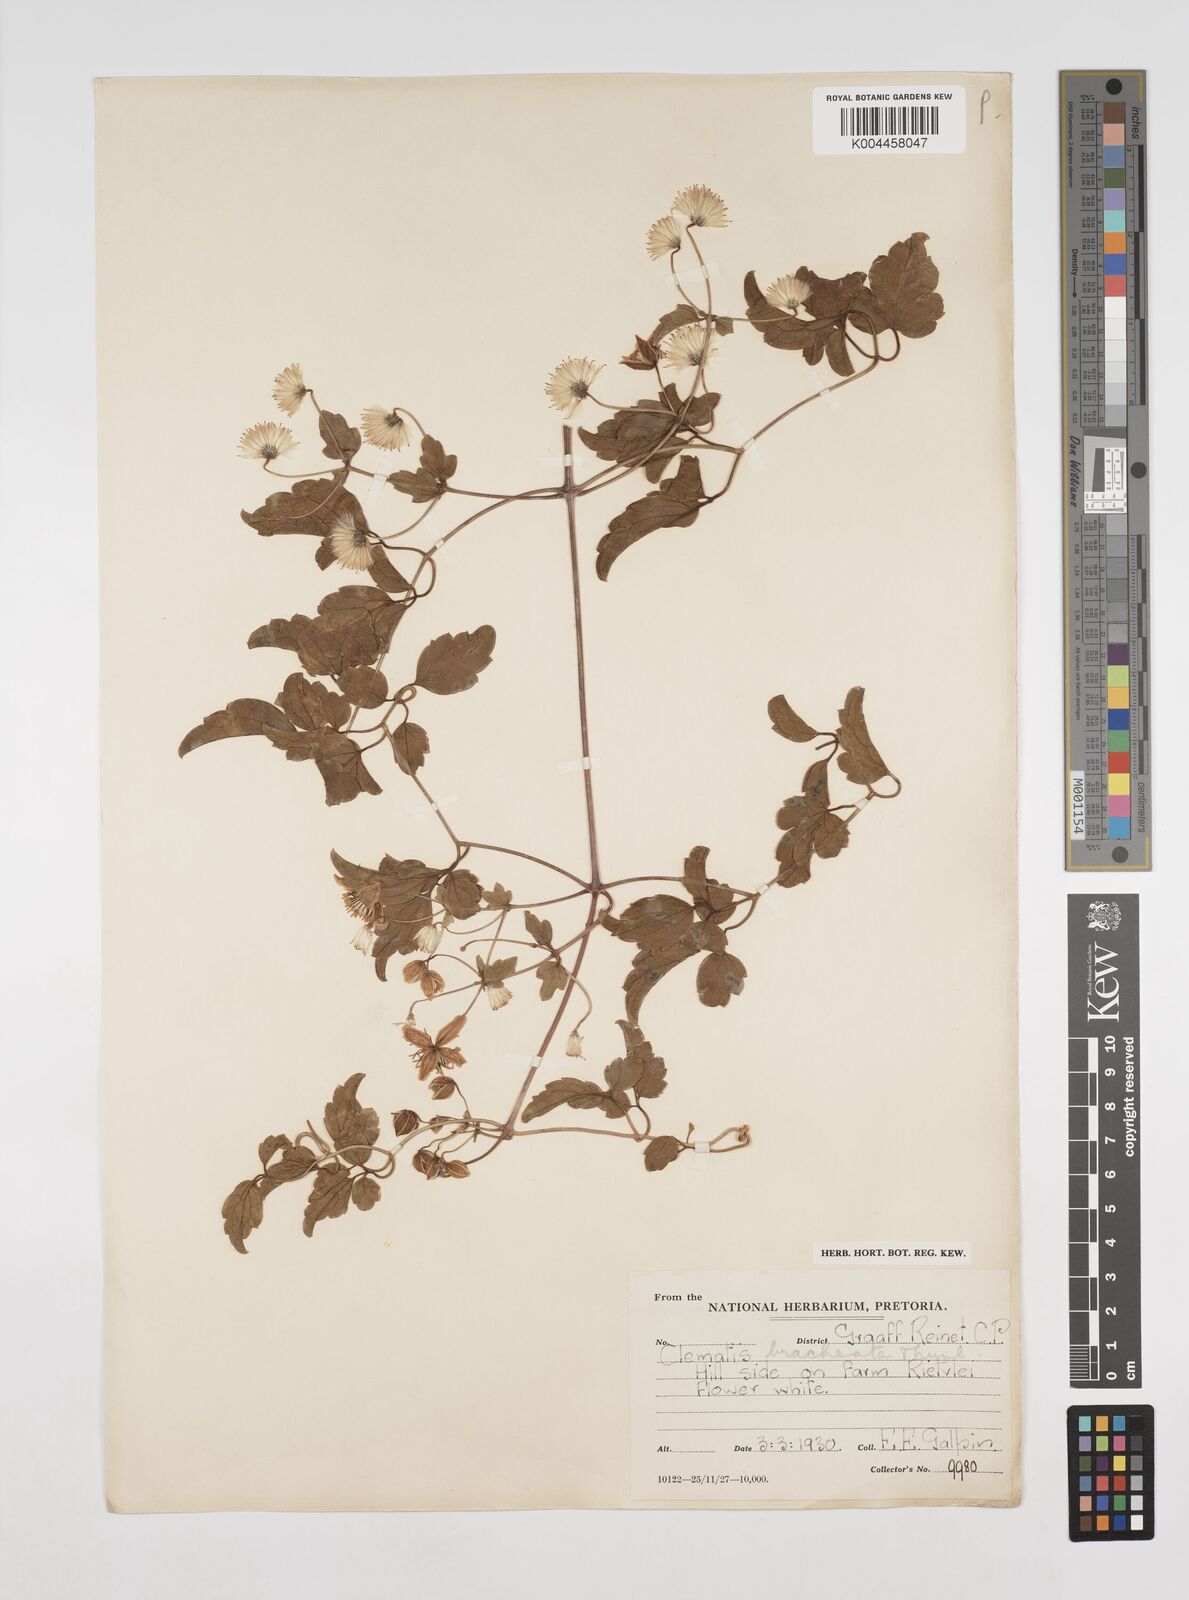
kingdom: Plantae
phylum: Tracheophyta
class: Magnoliopsida
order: Ranunculales
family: Ranunculaceae
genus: Clematis
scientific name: Clematis brachiata
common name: Traveler's-joy
